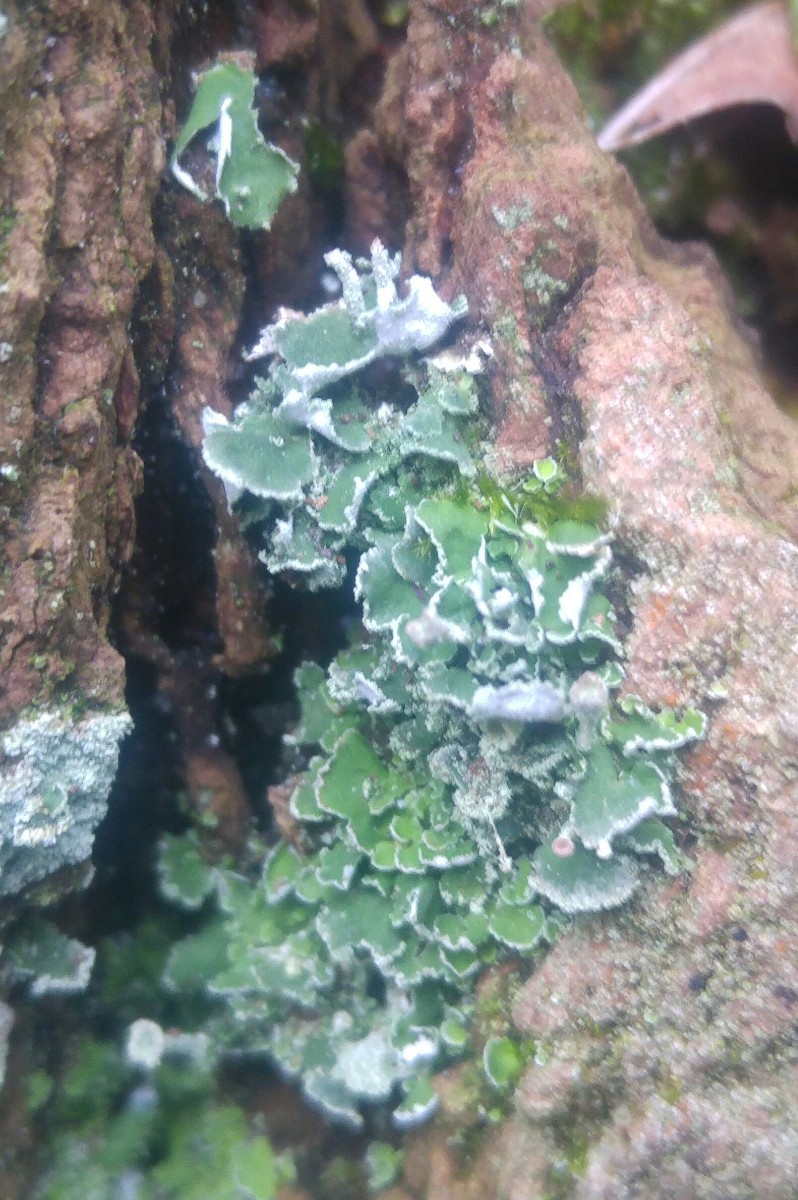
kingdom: Fungi
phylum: Ascomycota
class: Lecanoromycetes
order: Lecanorales
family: Cladoniaceae
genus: Cladonia
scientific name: Cladonia digitata
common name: finger-bægerlav
